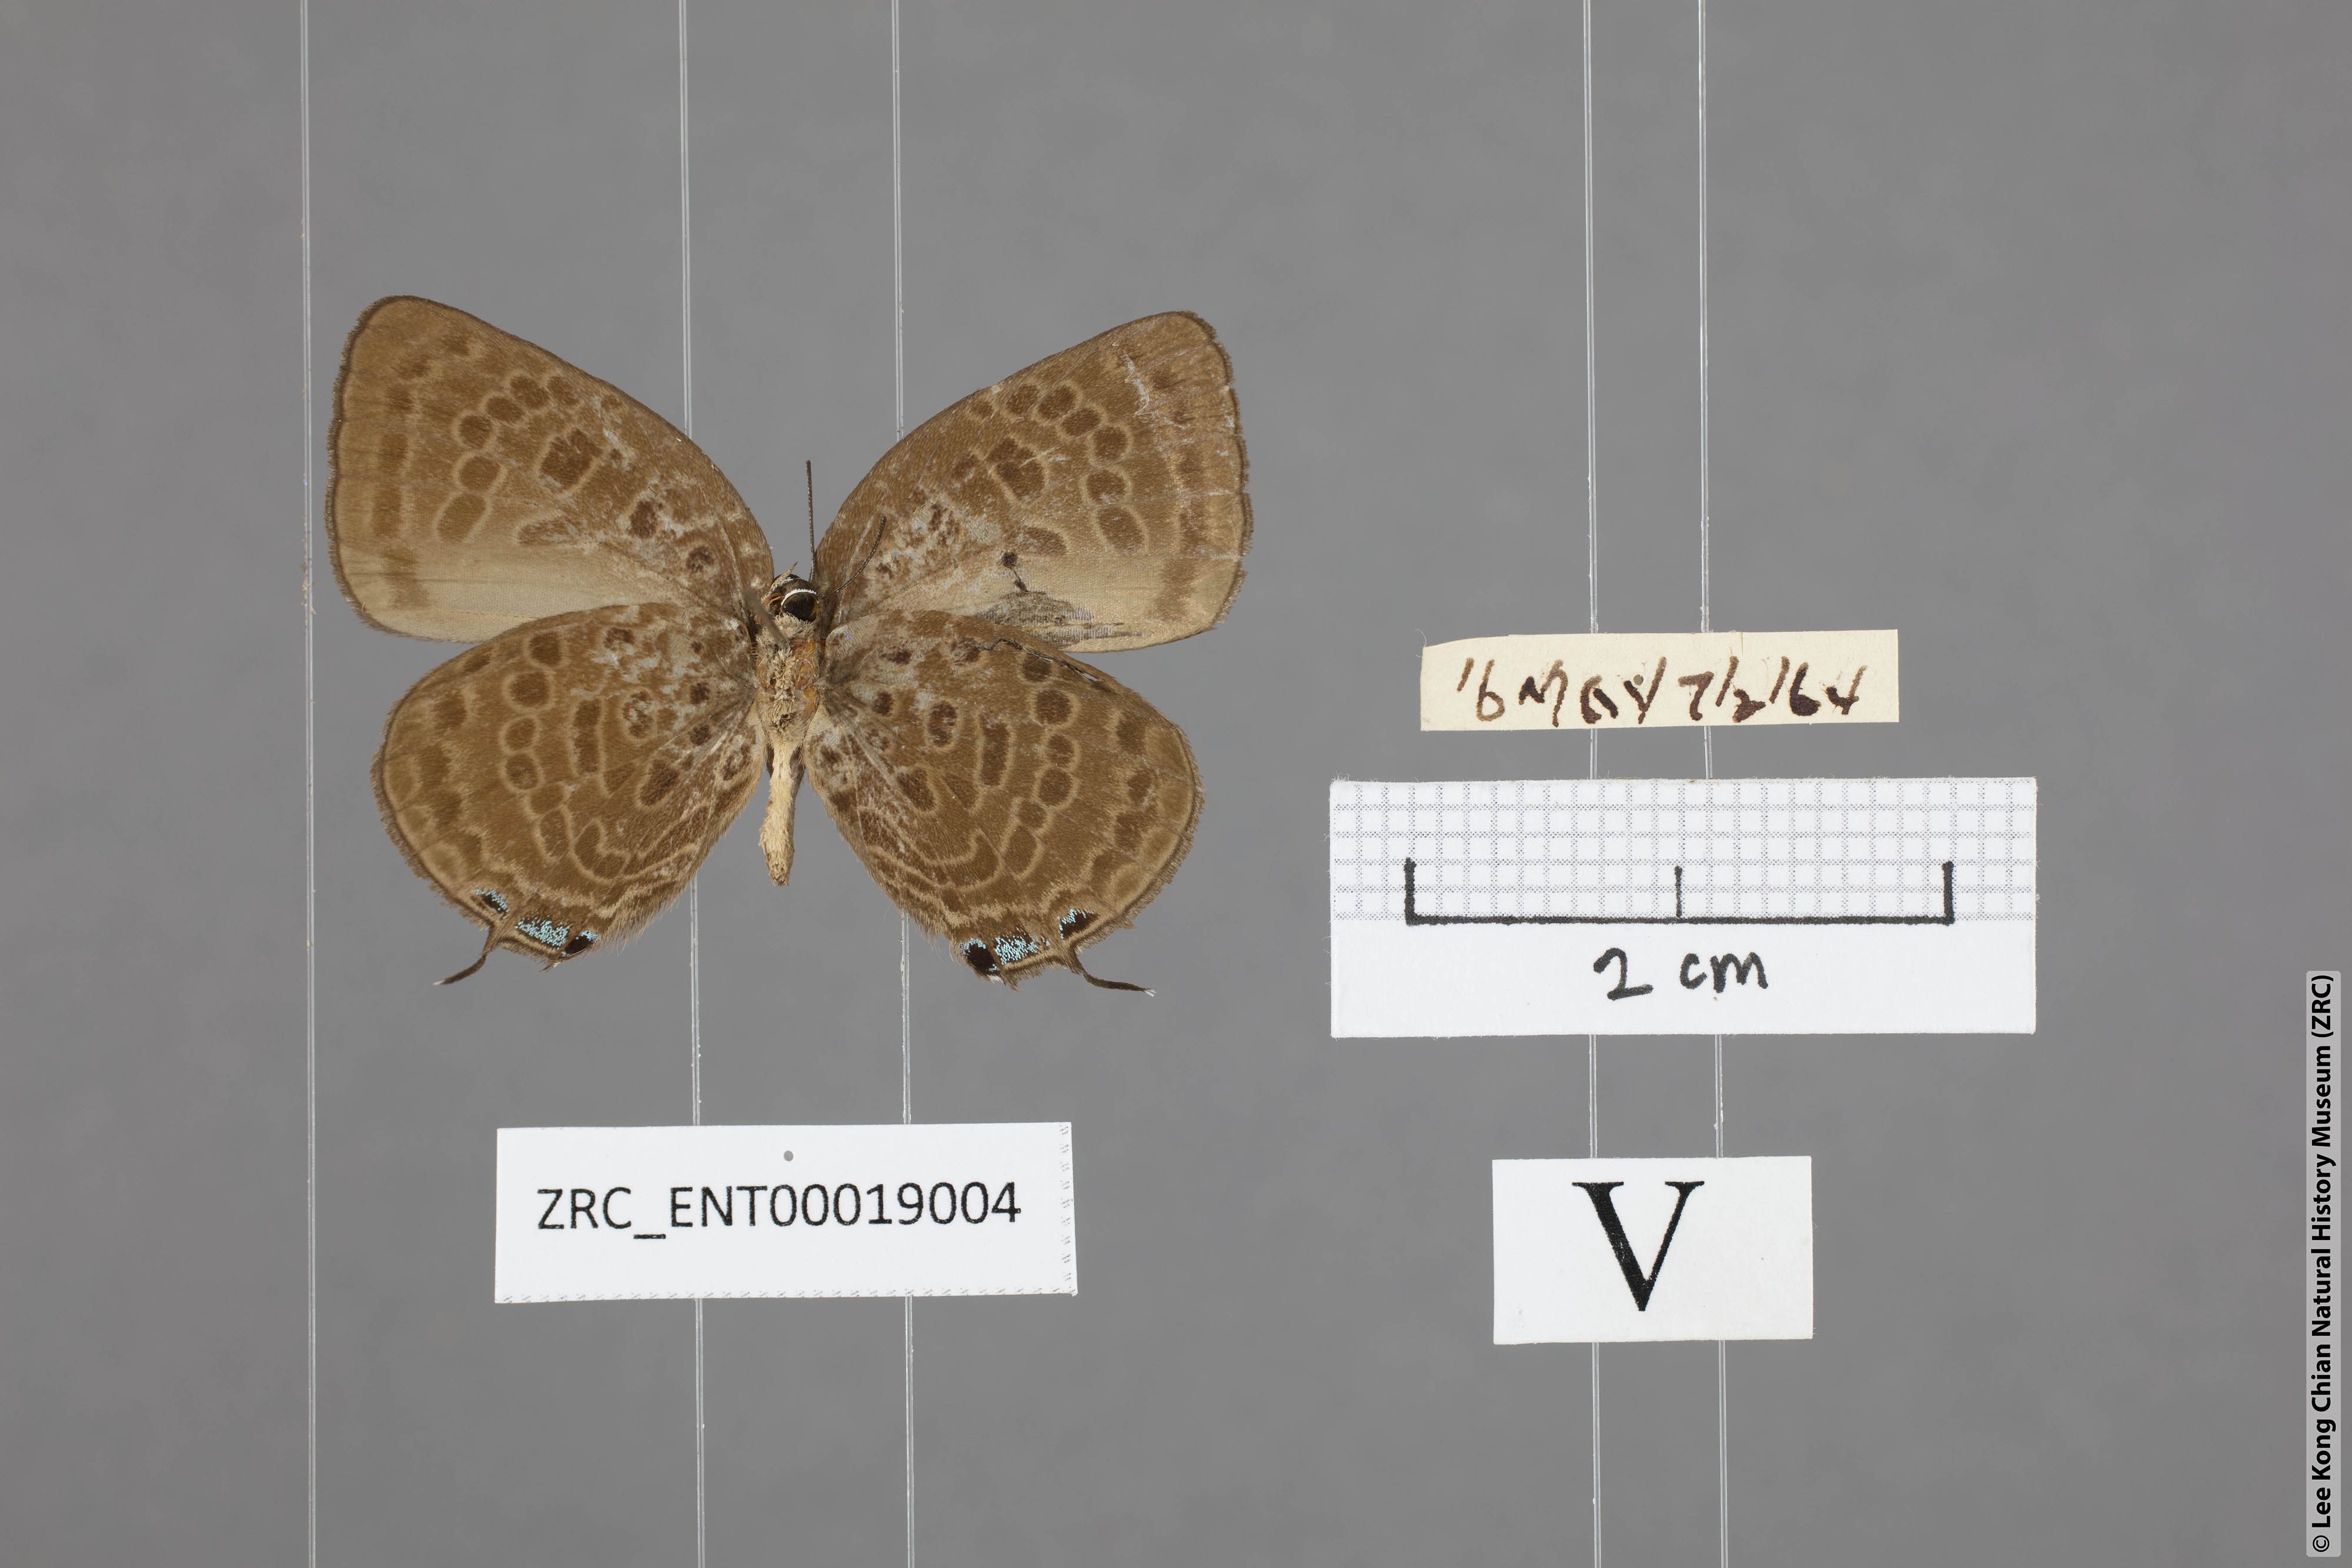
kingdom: Animalia
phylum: Arthropoda
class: Insecta
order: Lepidoptera
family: Lycaenidae
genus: Arhopala
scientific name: Arhopala aedias
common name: Large metallic oakblue
